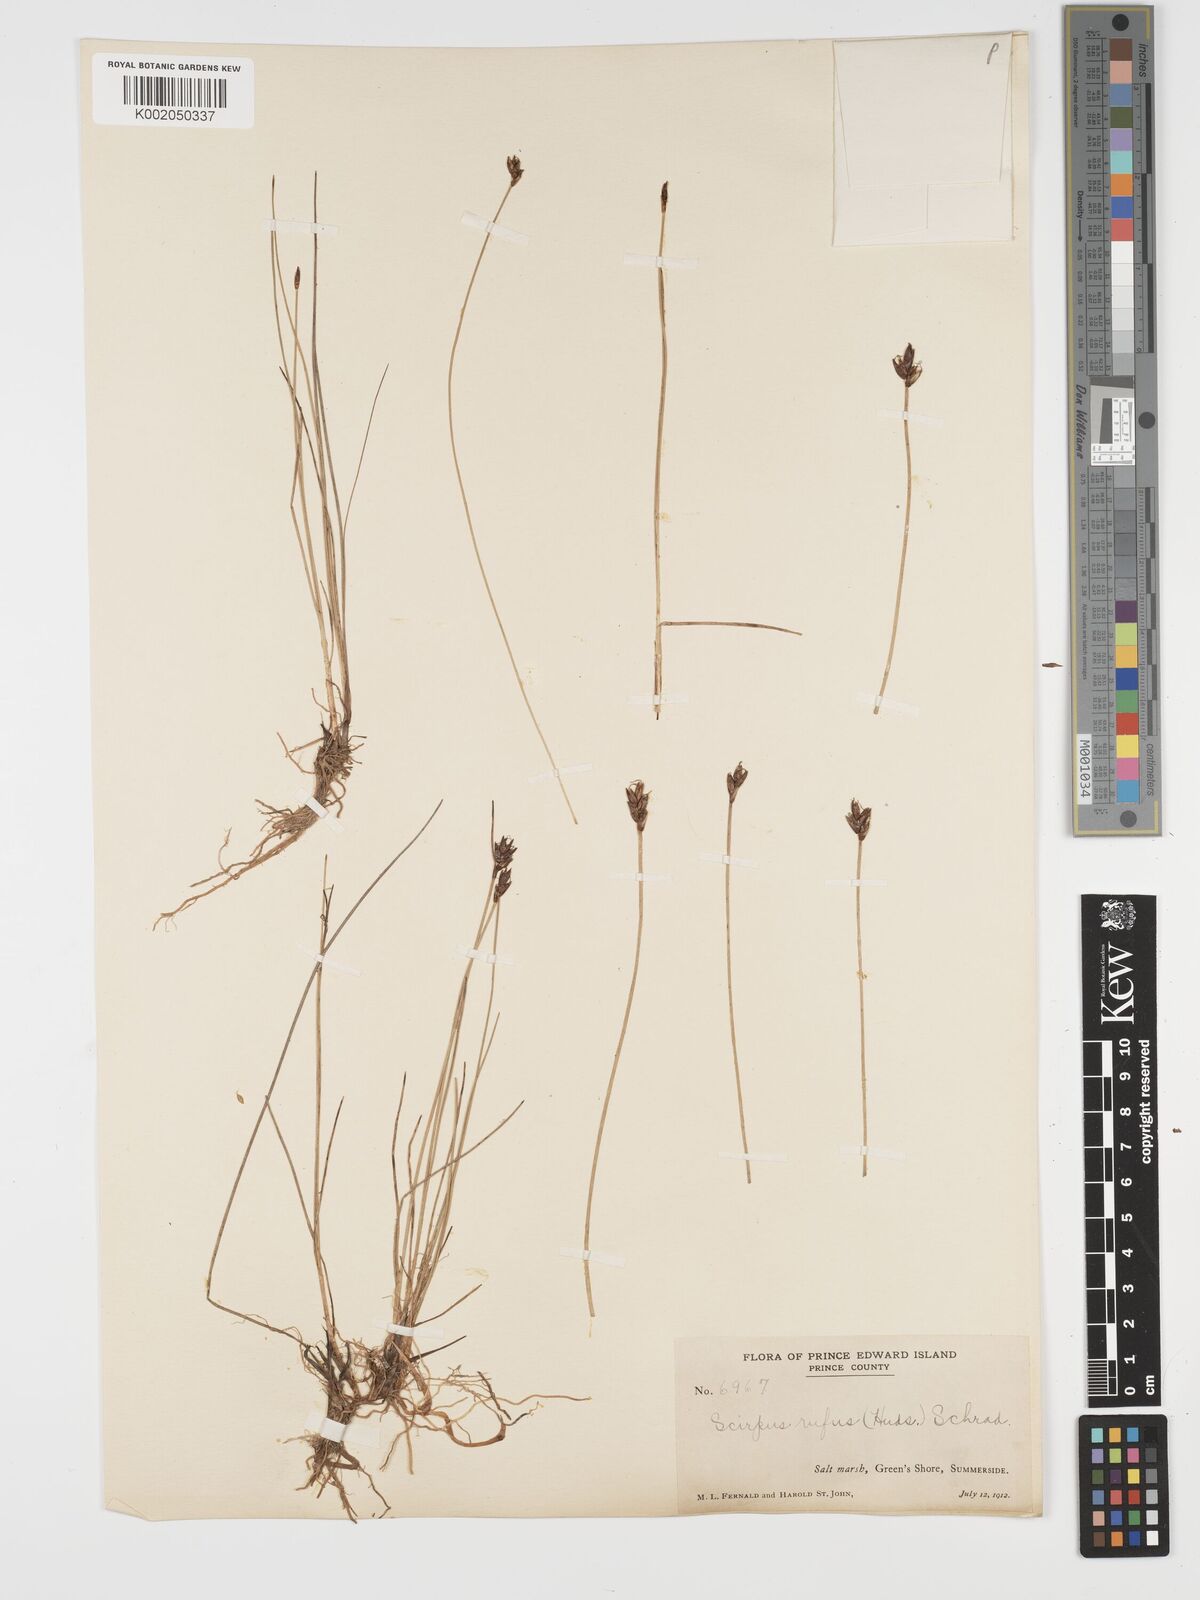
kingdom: Plantae
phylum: Tracheophyta
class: Liliopsida
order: Poales
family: Cyperaceae
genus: Blysmus
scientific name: Blysmus rufus
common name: Saltmarsh flat-sedge
